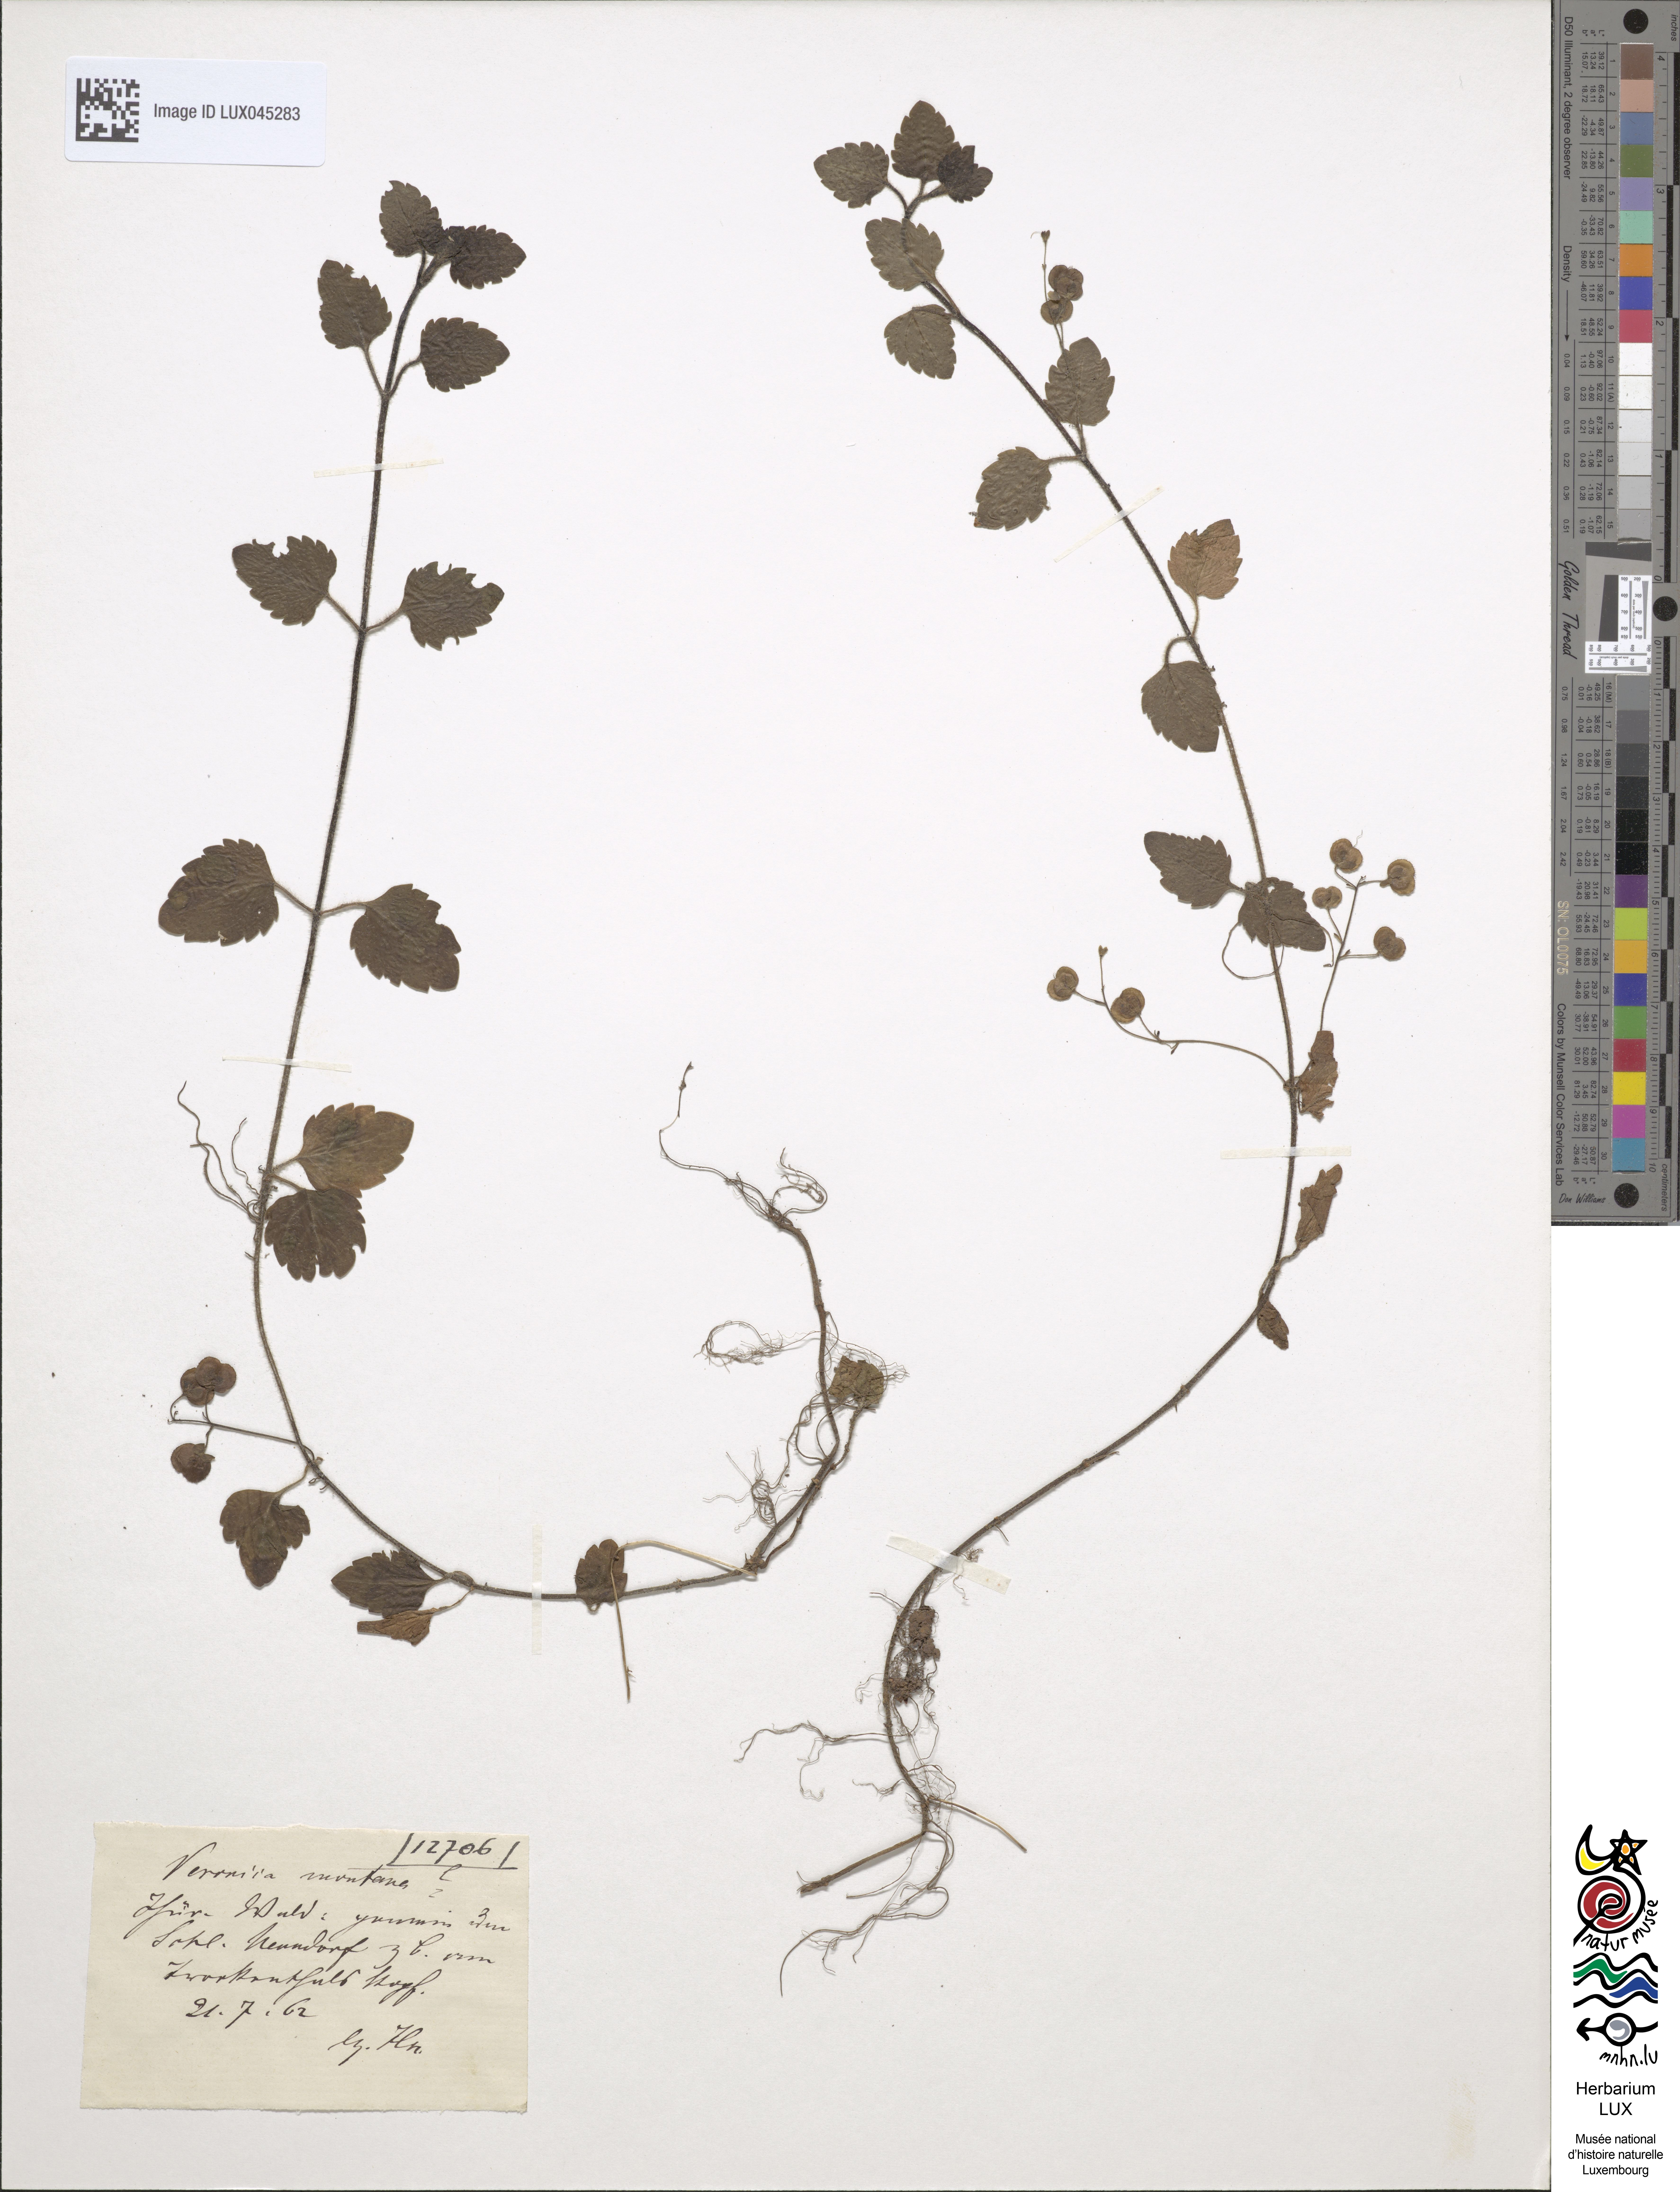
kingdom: Plantae
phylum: Tracheophyta
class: Magnoliopsida
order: Lamiales
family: Plantaginaceae
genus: Veronica
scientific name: Veronica montana
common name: Wood speedwell
